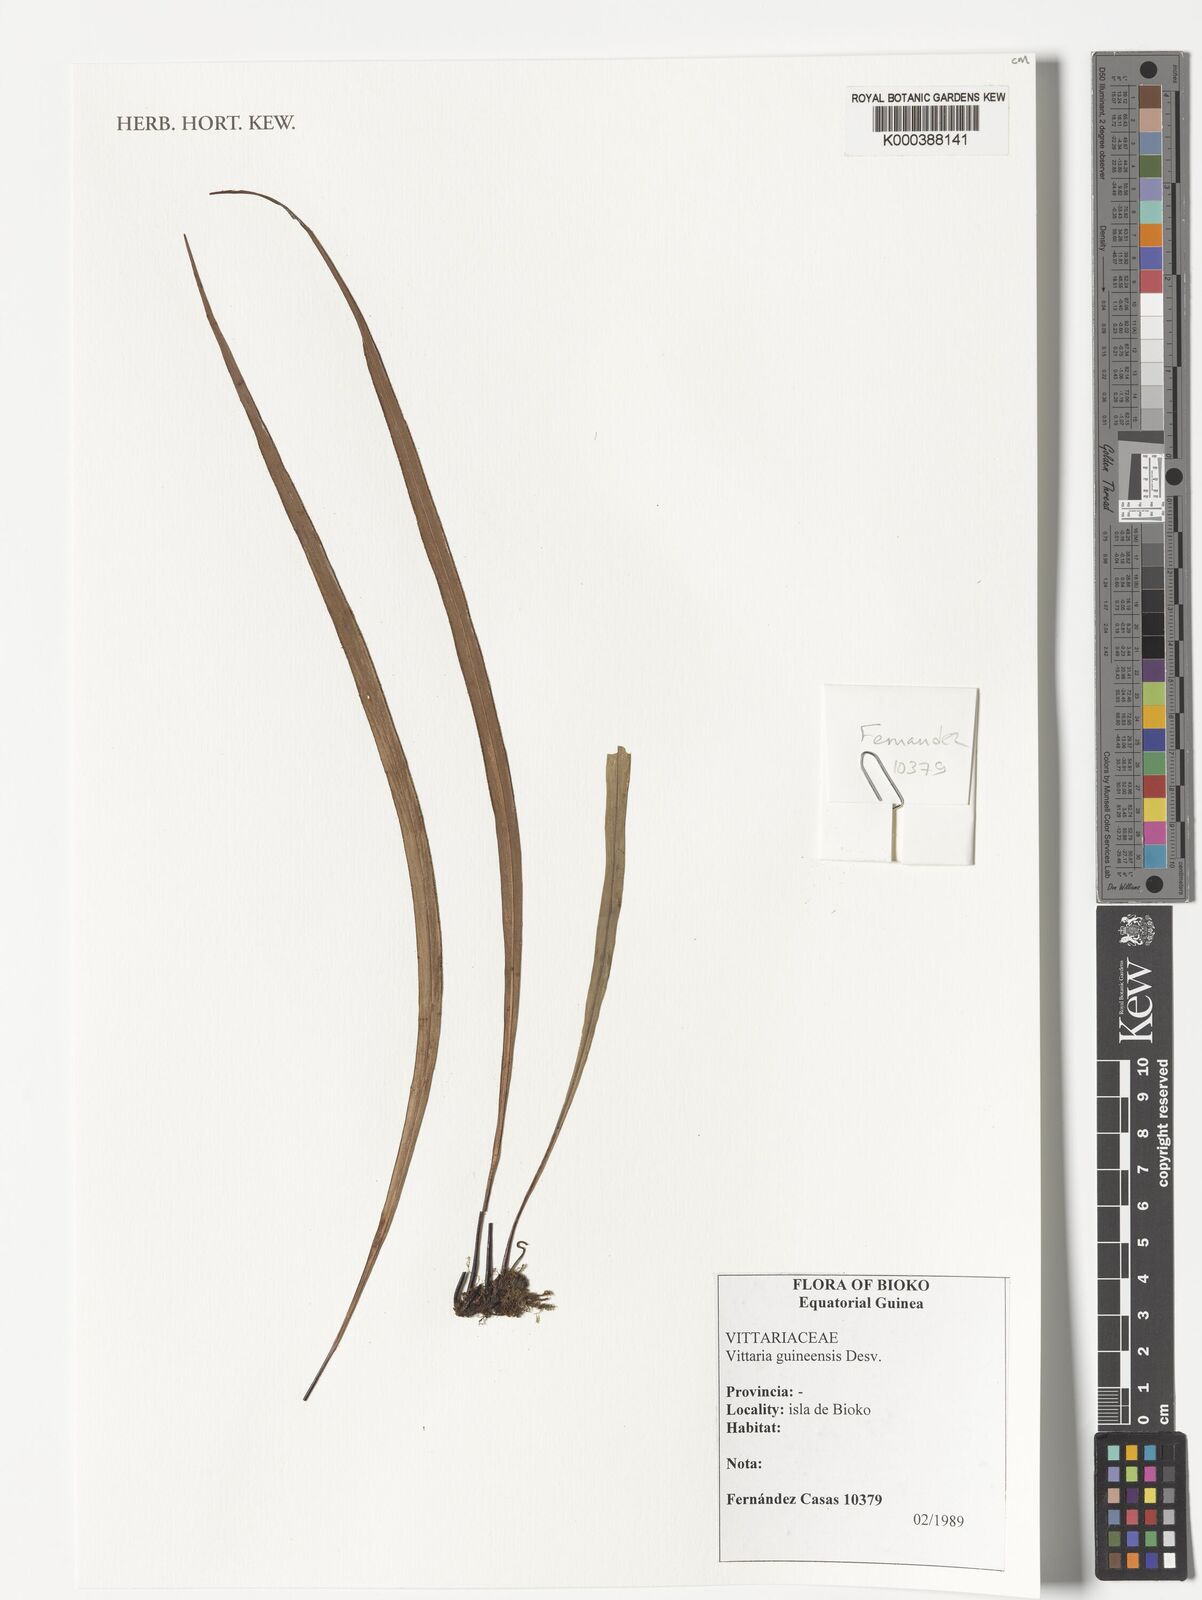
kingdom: Plantae
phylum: Tracheophyta
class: Polypodiopsida
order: Polypodiales
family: Pteridaceae
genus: Haplopteris
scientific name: Haplopteris guineensis
